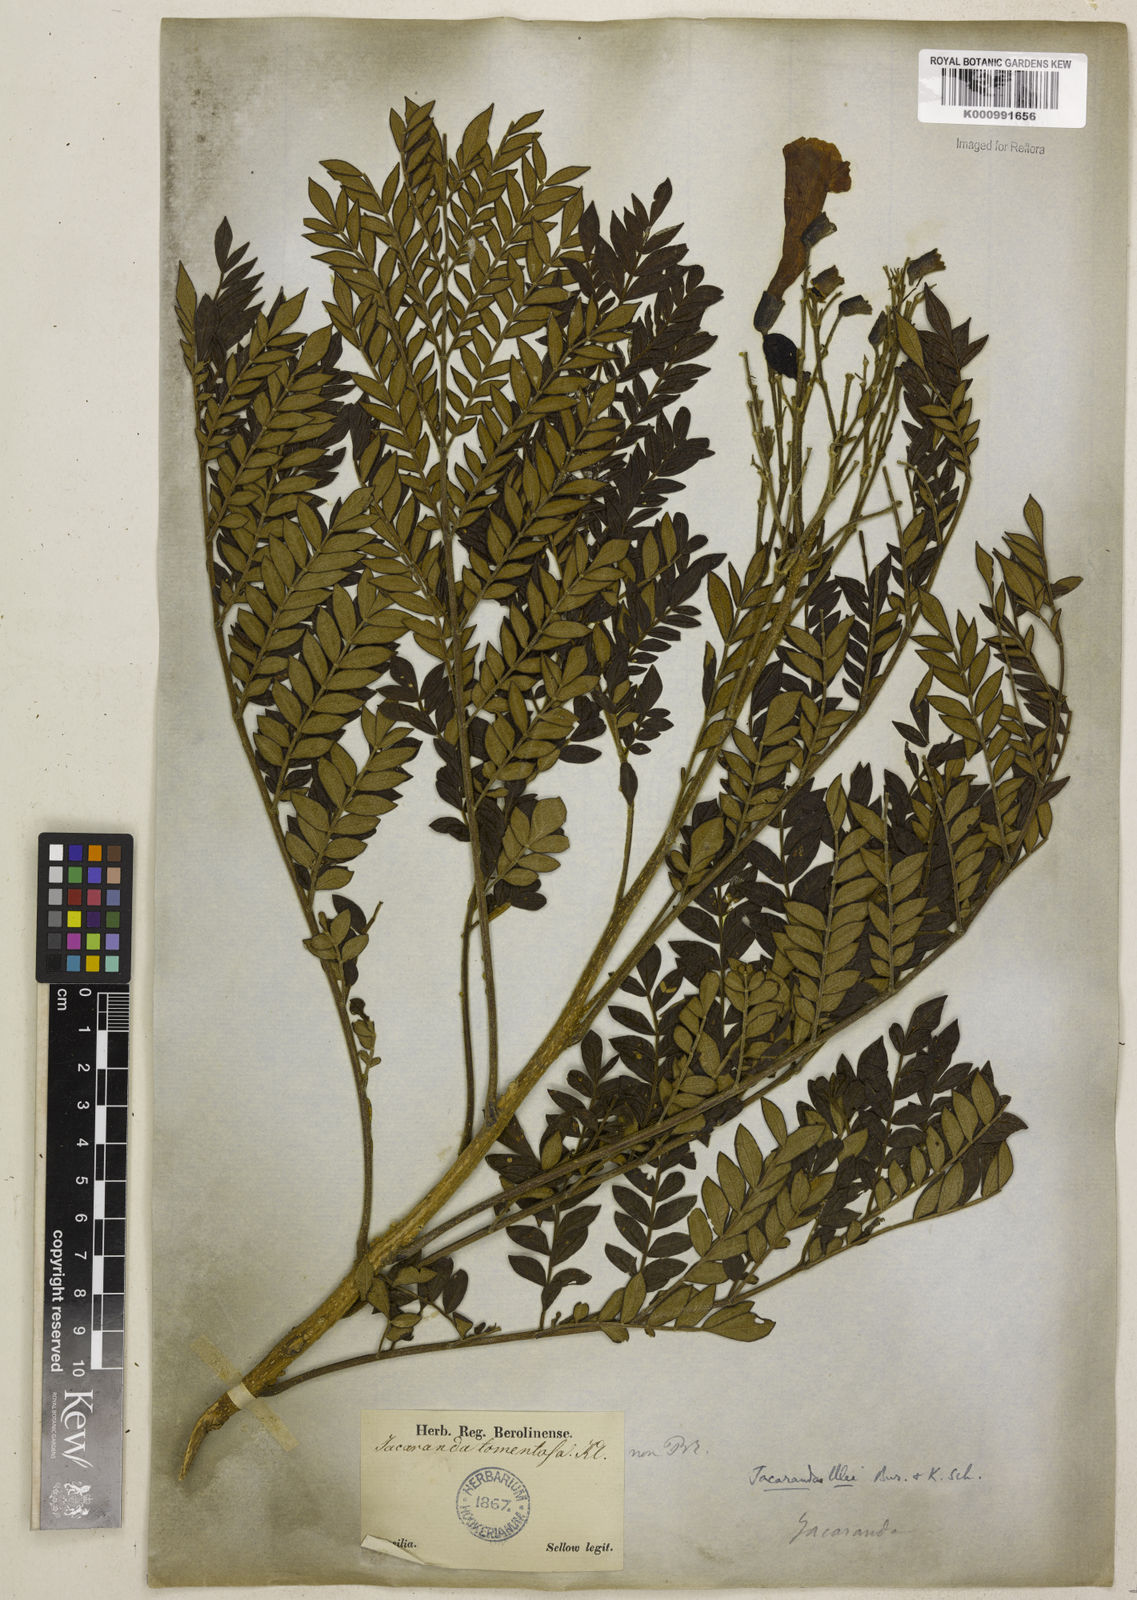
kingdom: Plantae
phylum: Tracheophyta
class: Magnoliopsida
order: Lamiales
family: Bignoniaceae
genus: Jacaranda
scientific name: Jacaranda ulei
